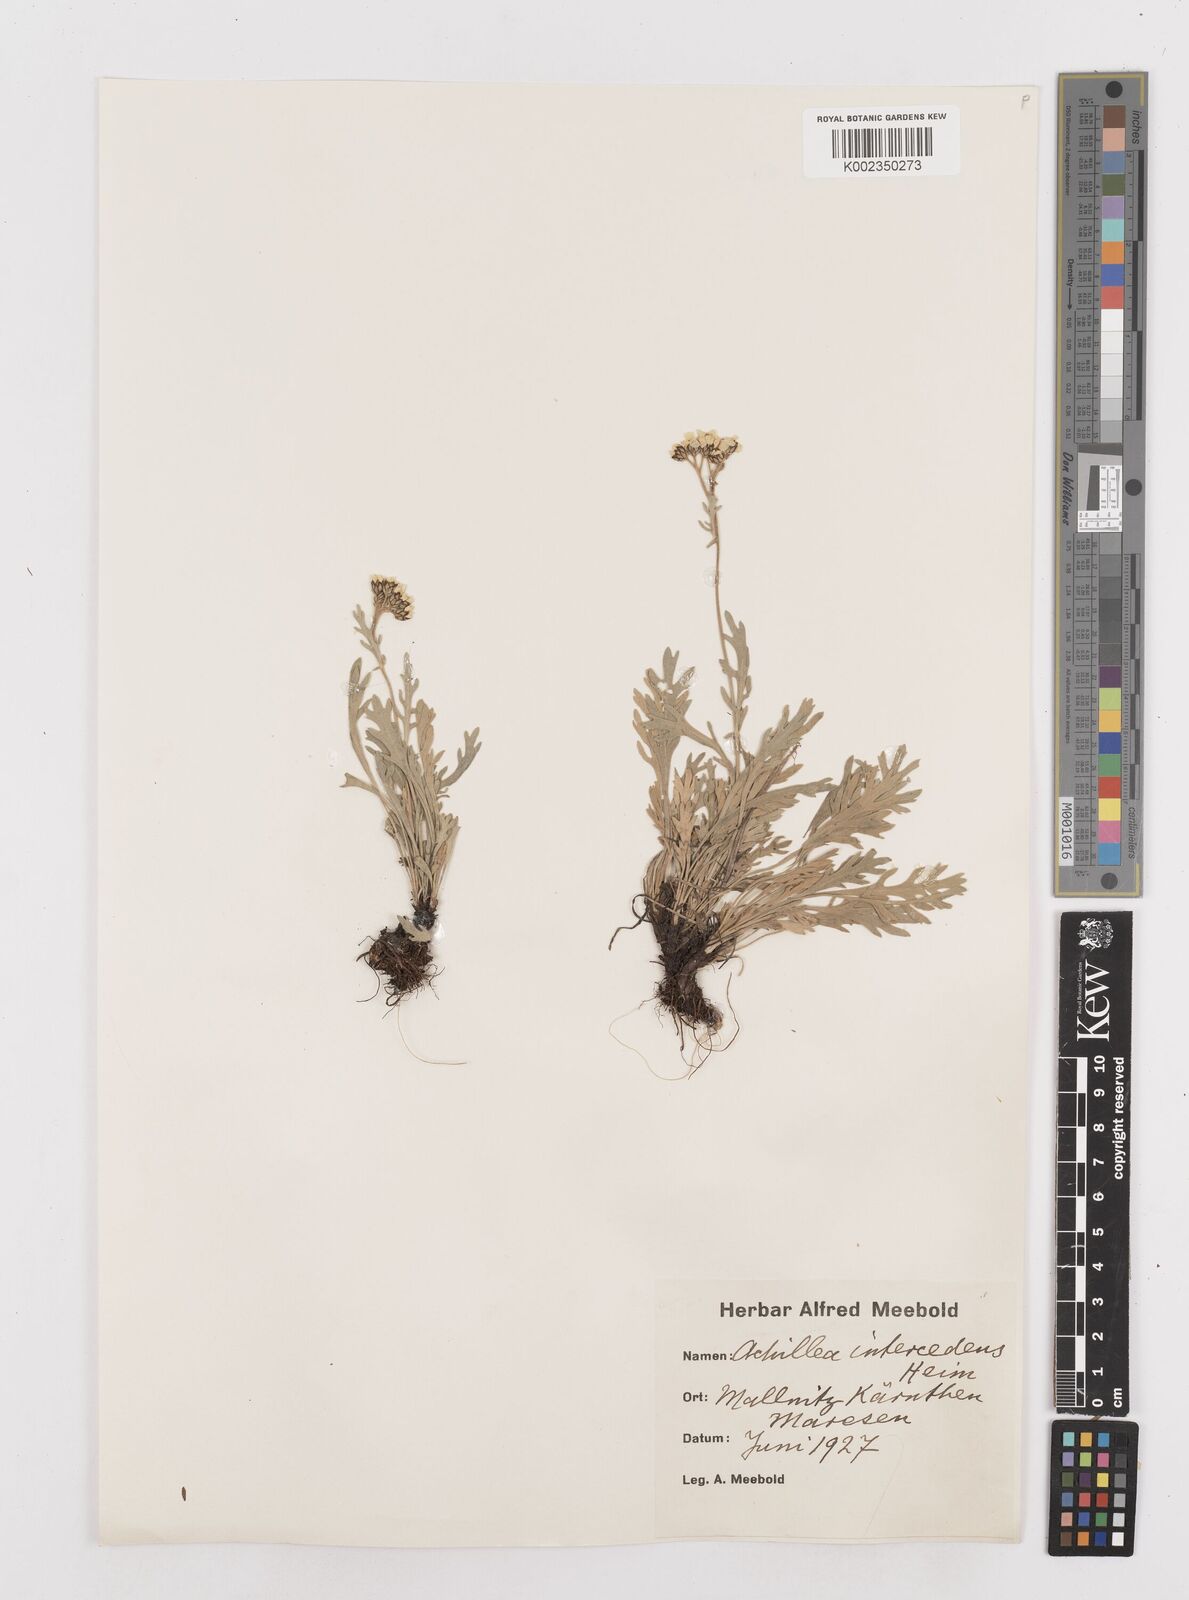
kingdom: Plantae
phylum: Tracheophyta
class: Magnoliopsida
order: Asterales
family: Asteraceae
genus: Achillea
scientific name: Achillea clavennae
